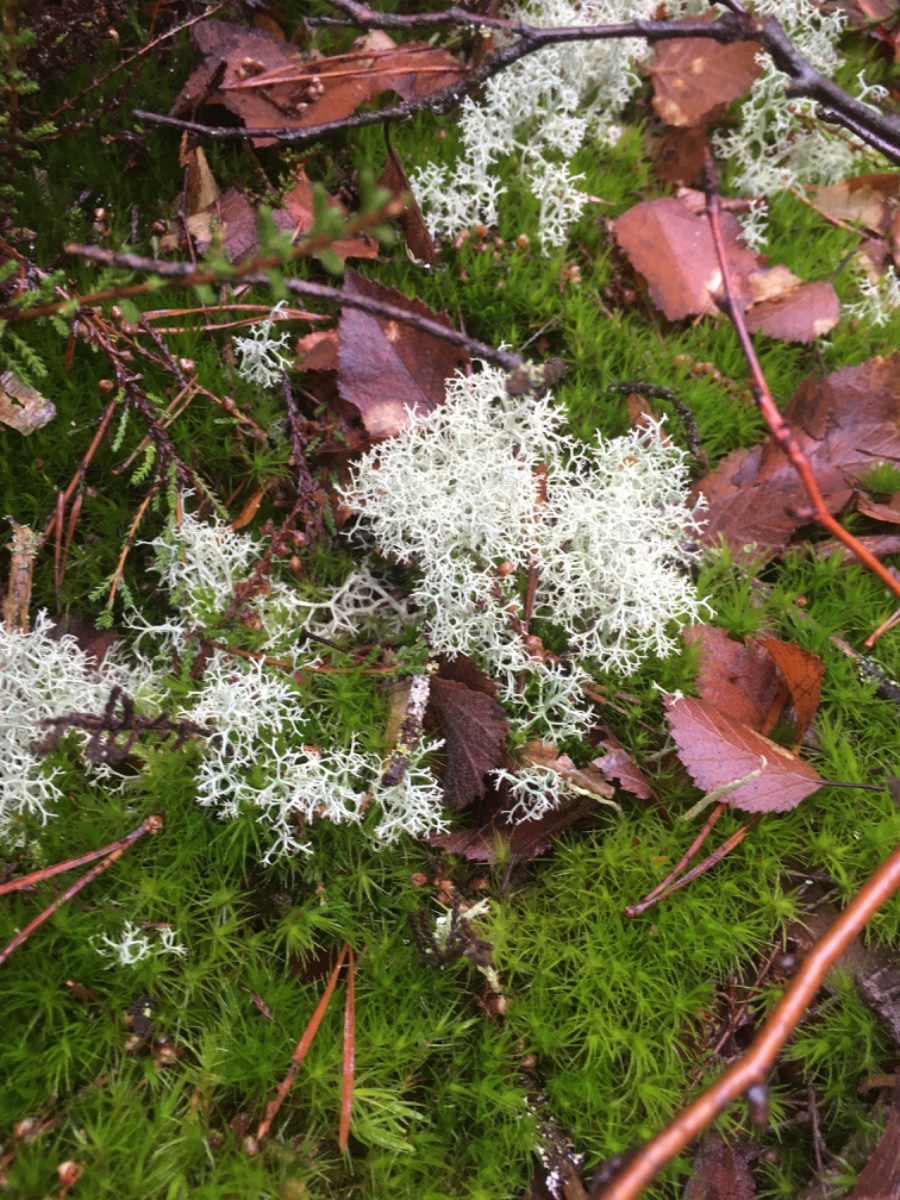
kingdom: Fungi
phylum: Ascomycota
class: Lecanoromycetes
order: Lecanorales
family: Cladoniaceae
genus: Cladonia
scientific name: Cladonia portentosa
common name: hede-rensdyrlav
